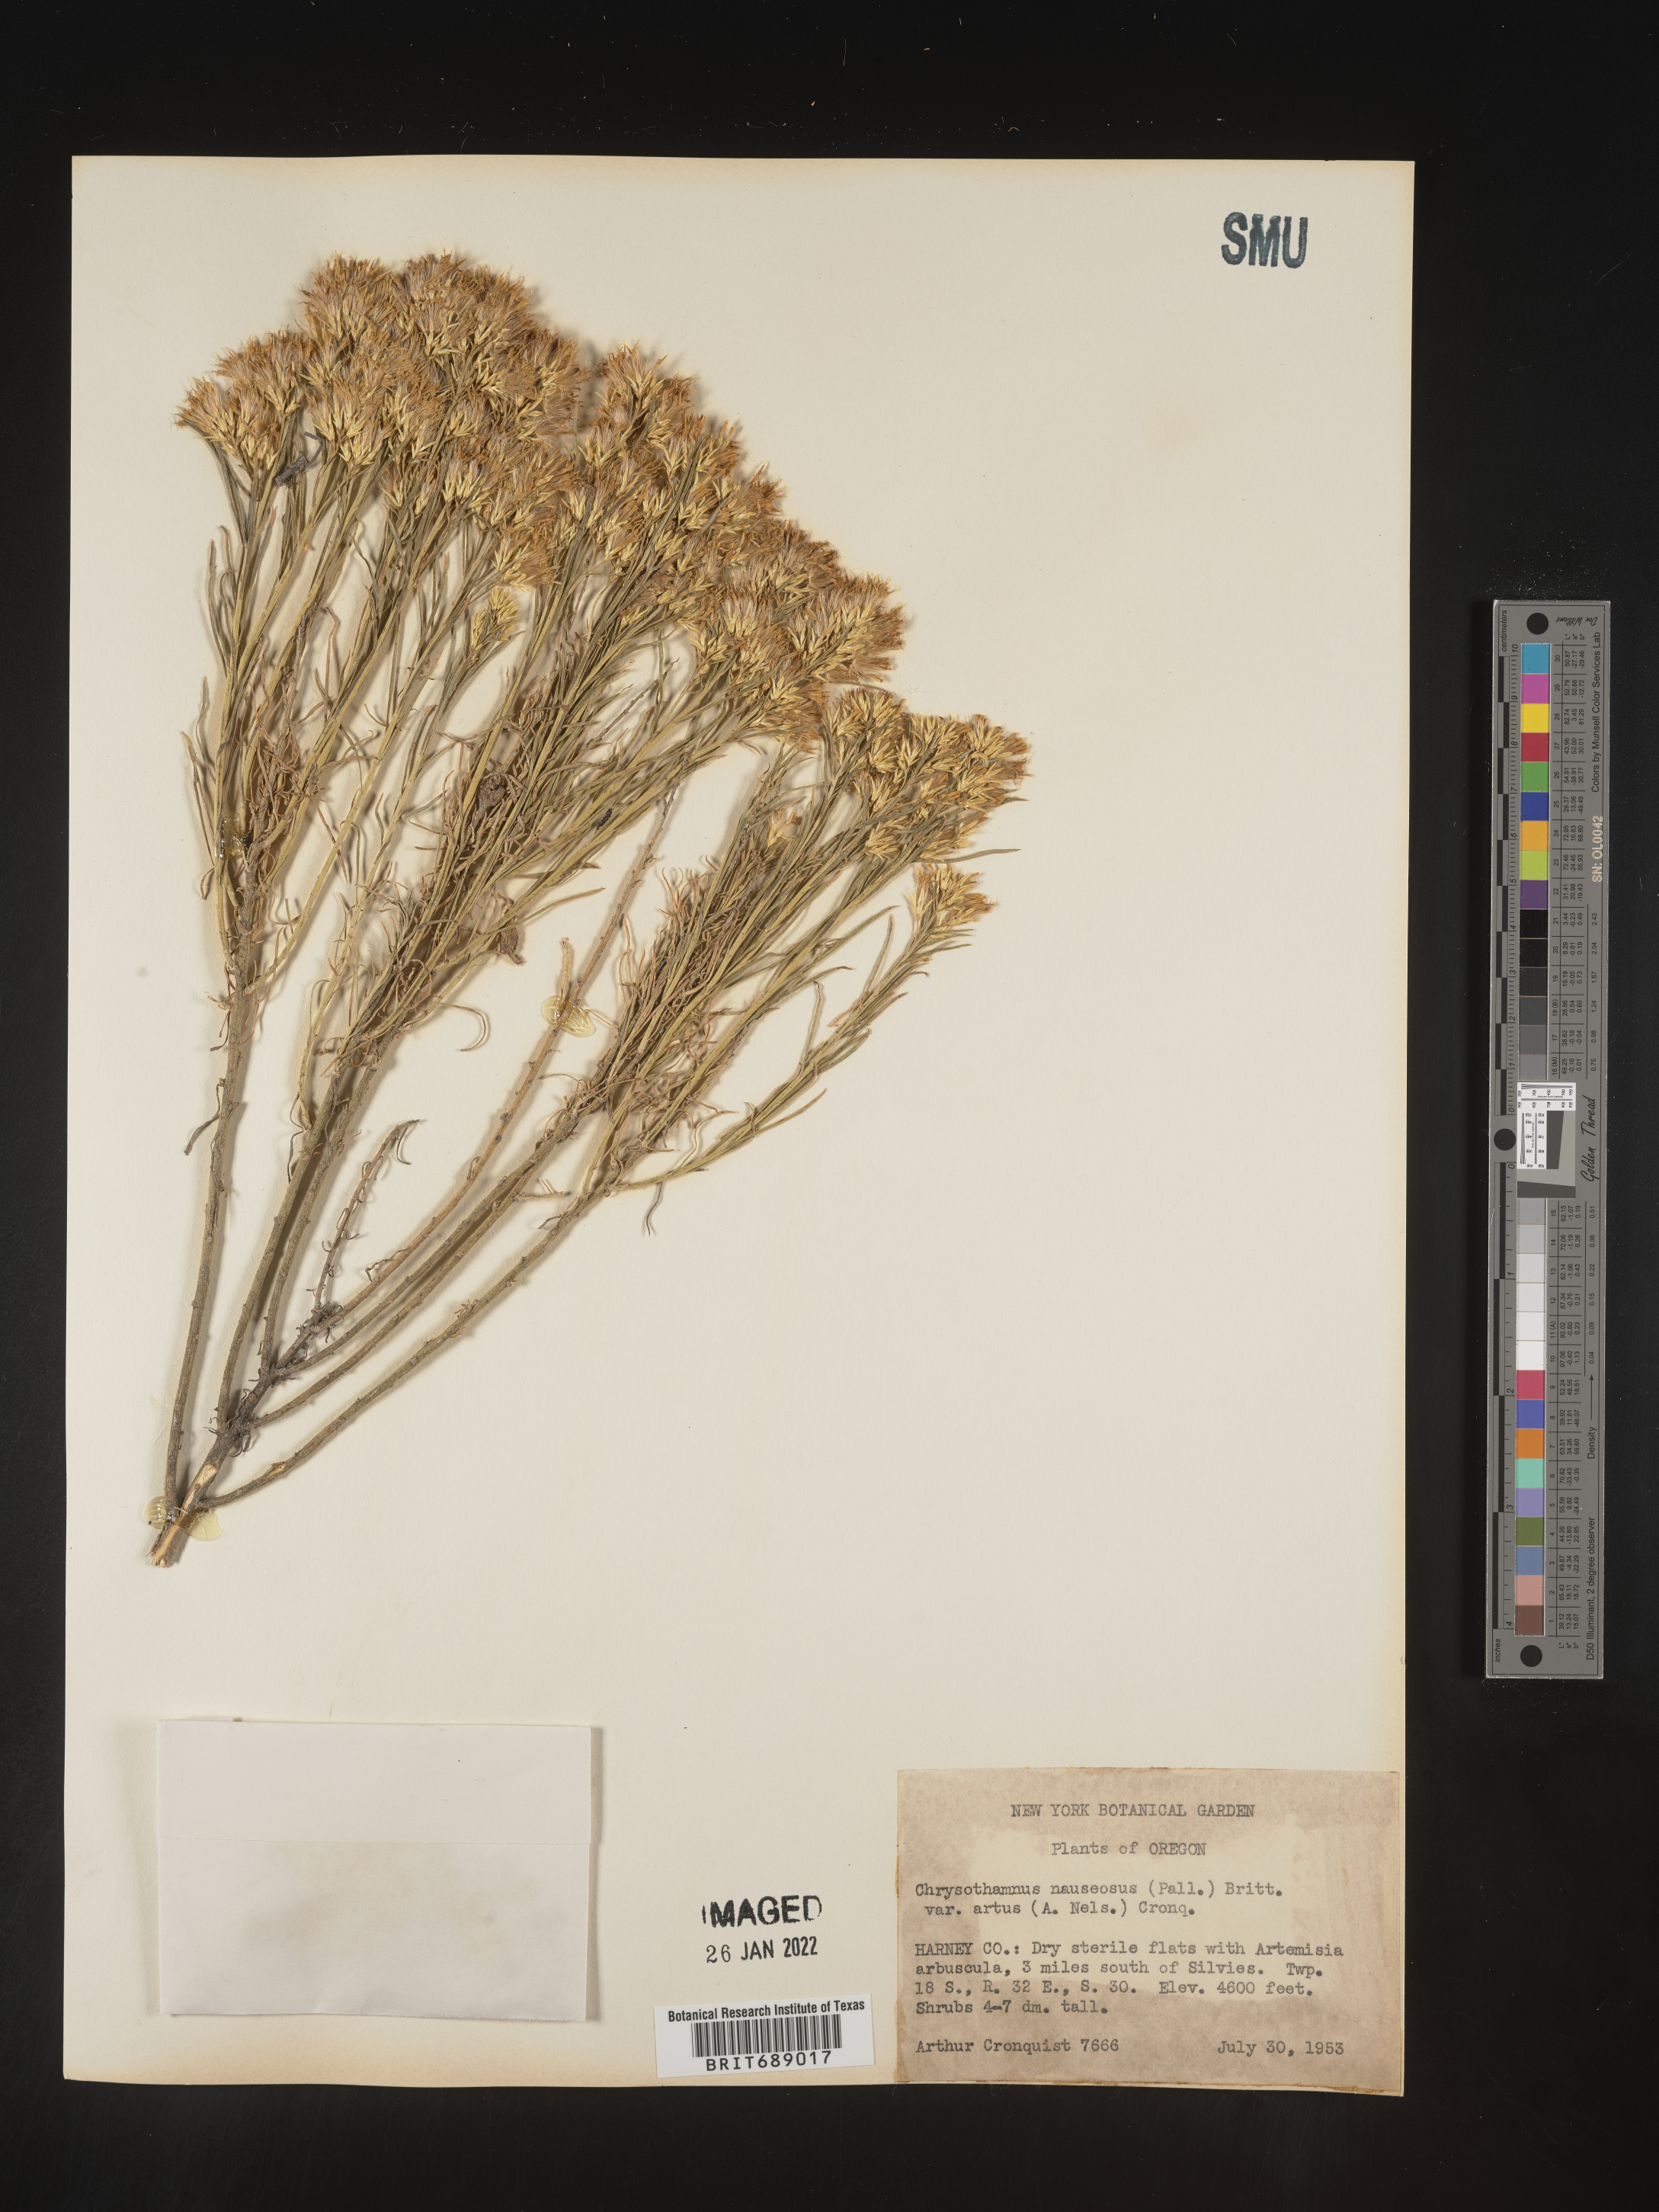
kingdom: Plantae
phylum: Tracheophyta
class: Magnoliopsida
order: Asterales
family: Asteraceae
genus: Ericameria
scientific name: Ericameria nauseosa
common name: Rubber rabbitbrush
